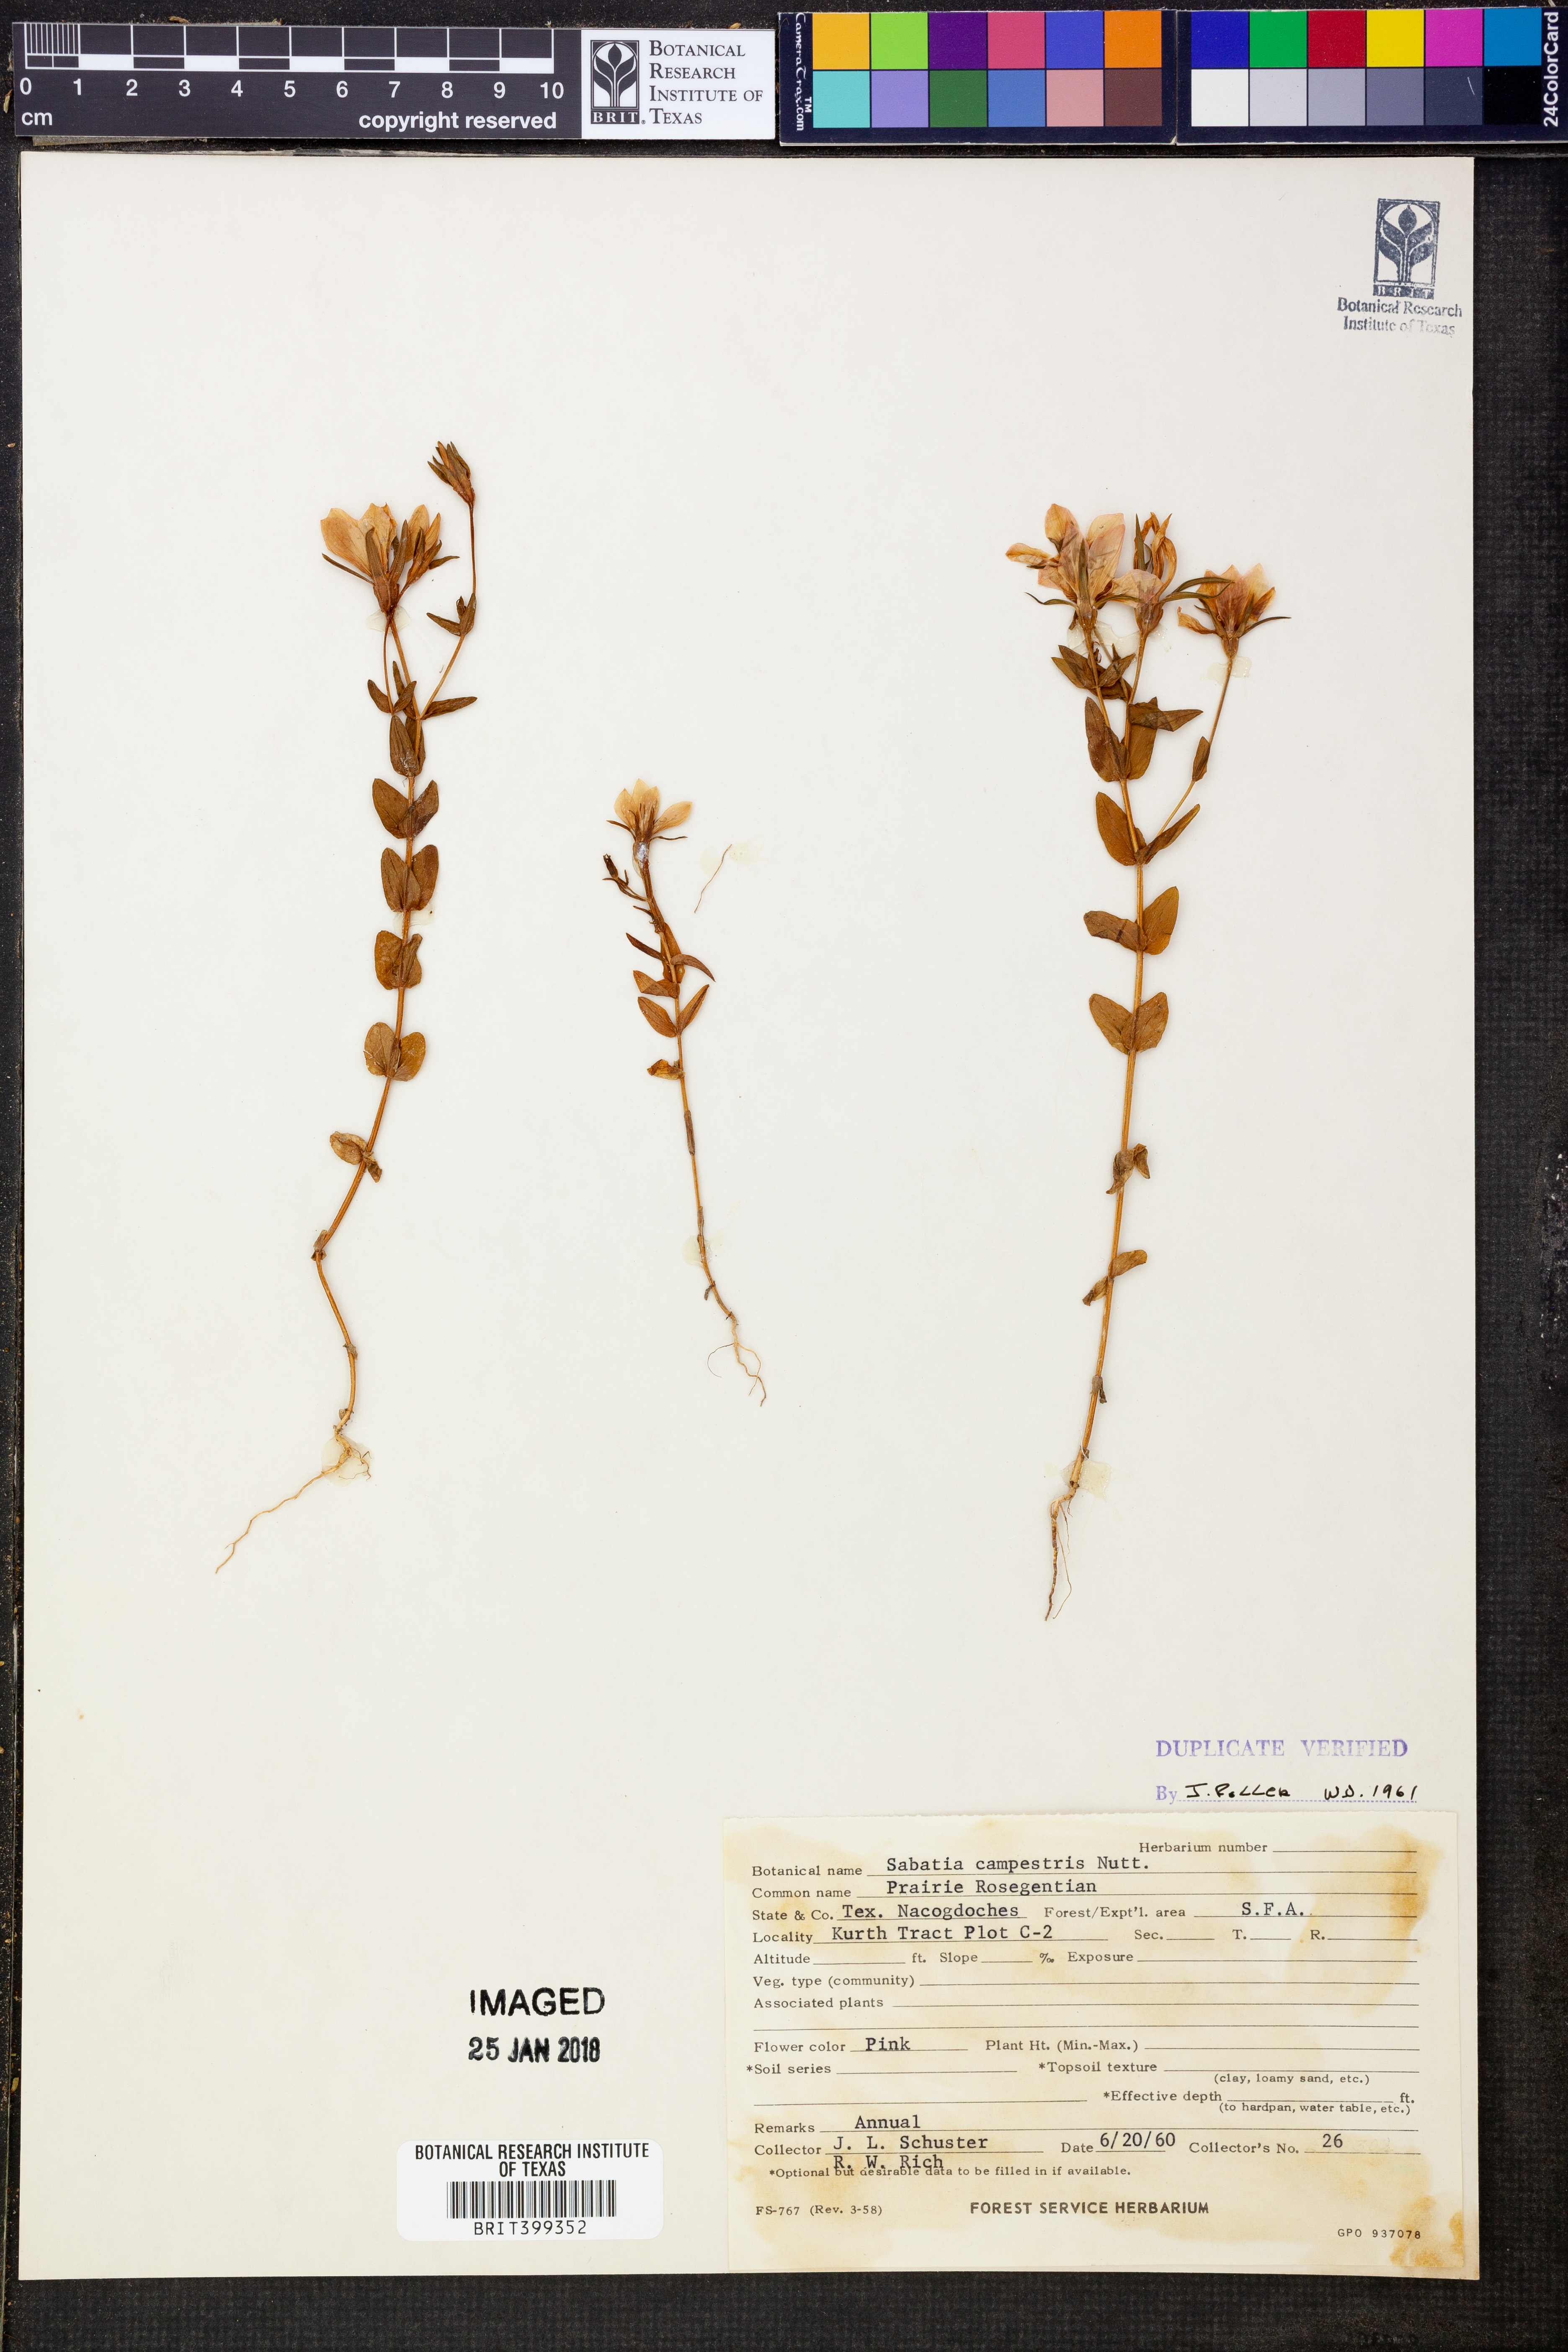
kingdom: Plantae
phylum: Tracheophyta
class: Magnoliopsida
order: Gentianales
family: Gentianaceae
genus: Sabatia
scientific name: Sabatia campestris
